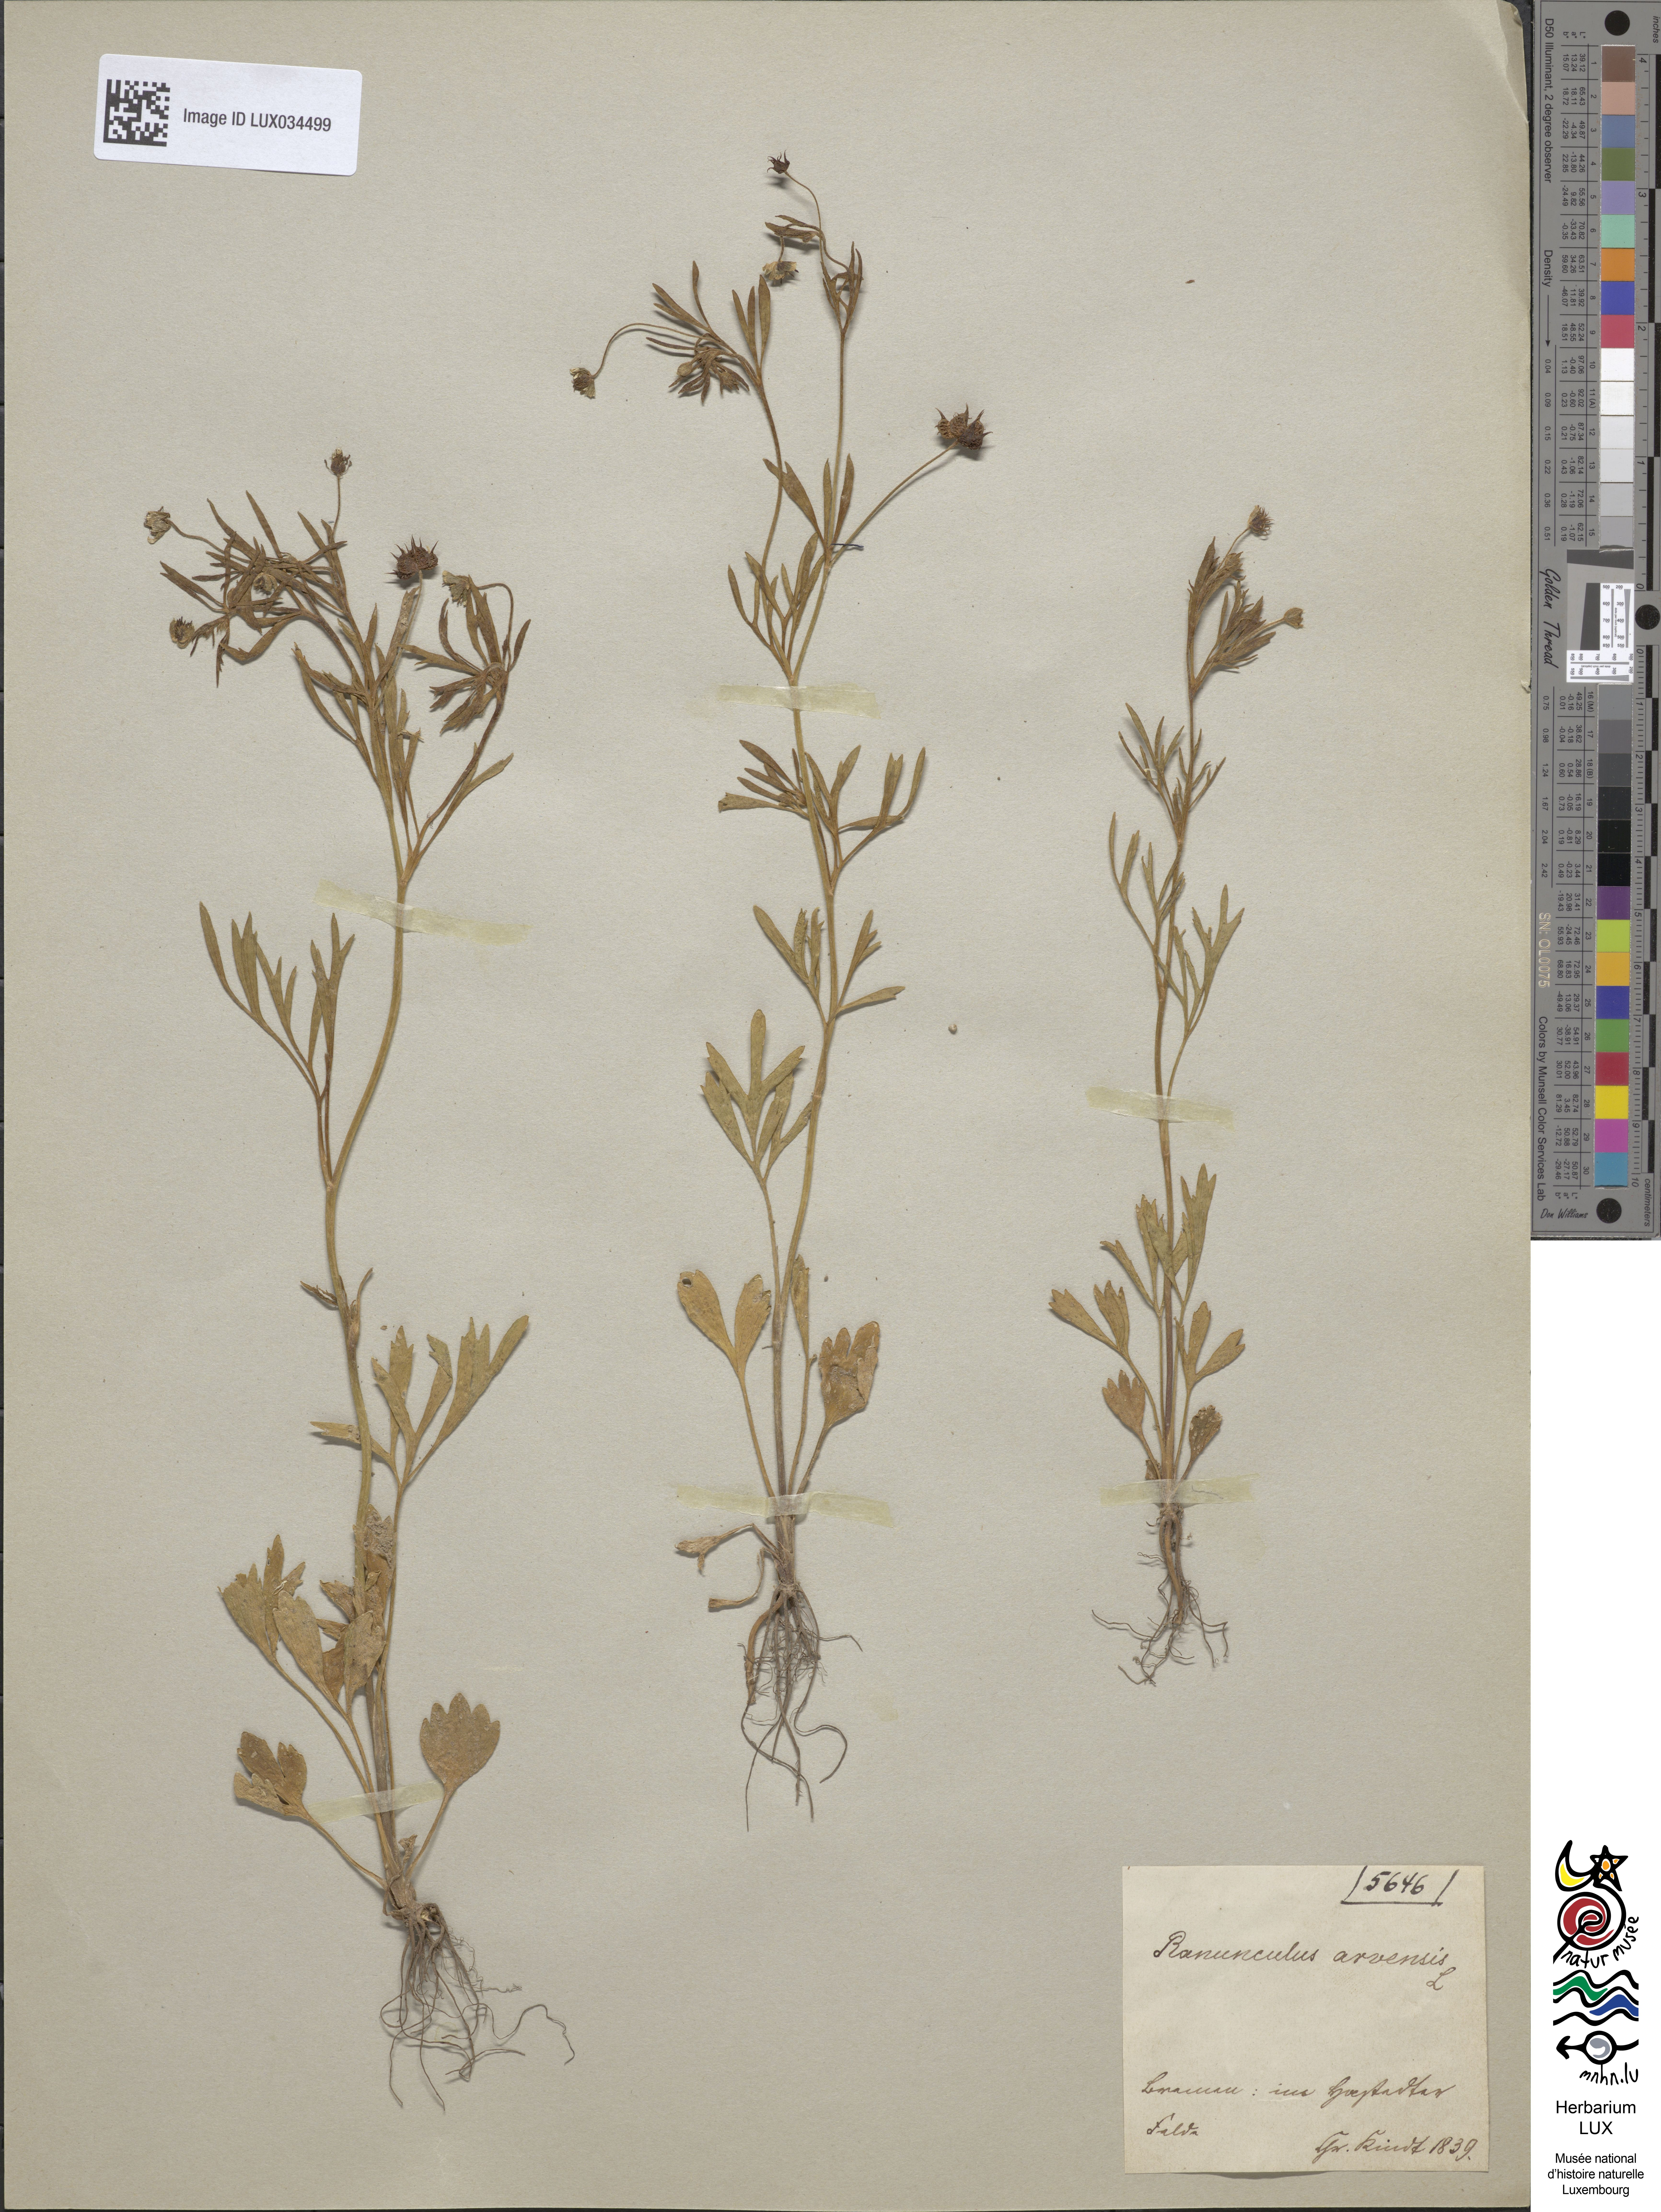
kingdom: Plantae
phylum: Tracheophyta
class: Magnoliopsida
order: Ranunculales
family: Ranunculaceae
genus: Ranunculus
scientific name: Ranunculus arvensis
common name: Corn buttercup
